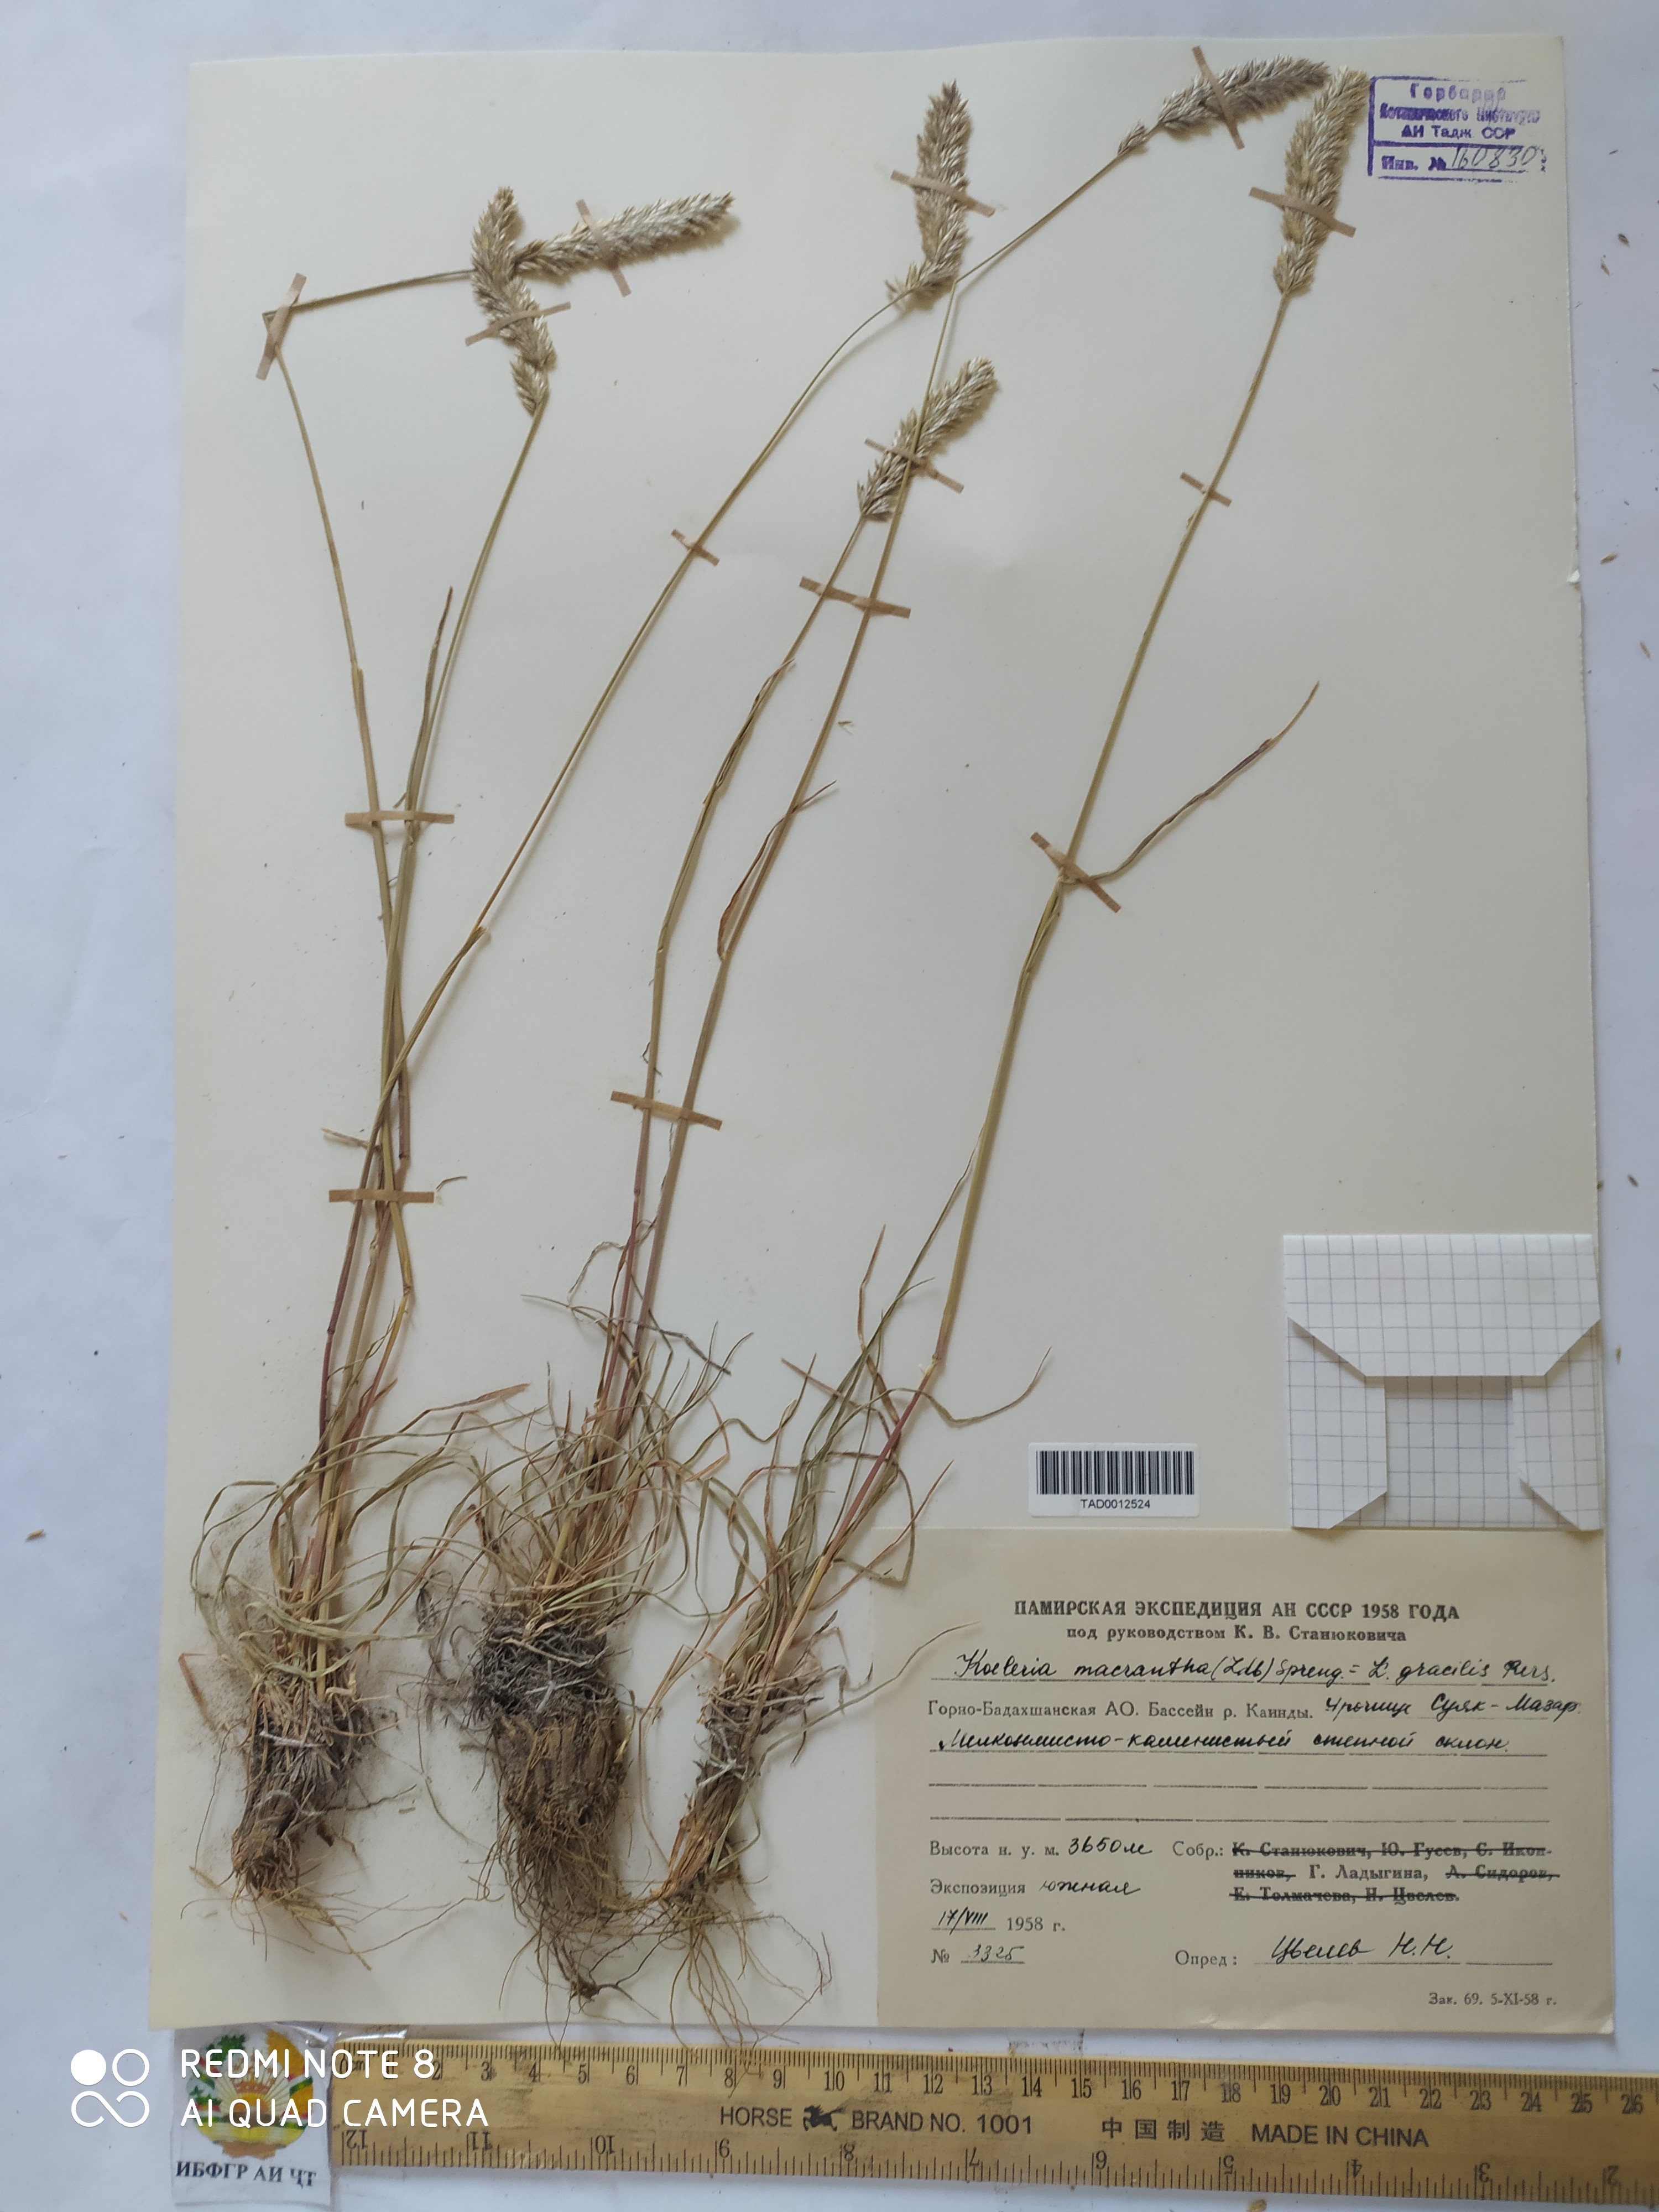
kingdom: Plantae
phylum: Tracheophyta
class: Liliopsida
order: Poales
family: Poaceae
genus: Koeleria
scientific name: Koeleria macrantha
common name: Crested hair-grass
